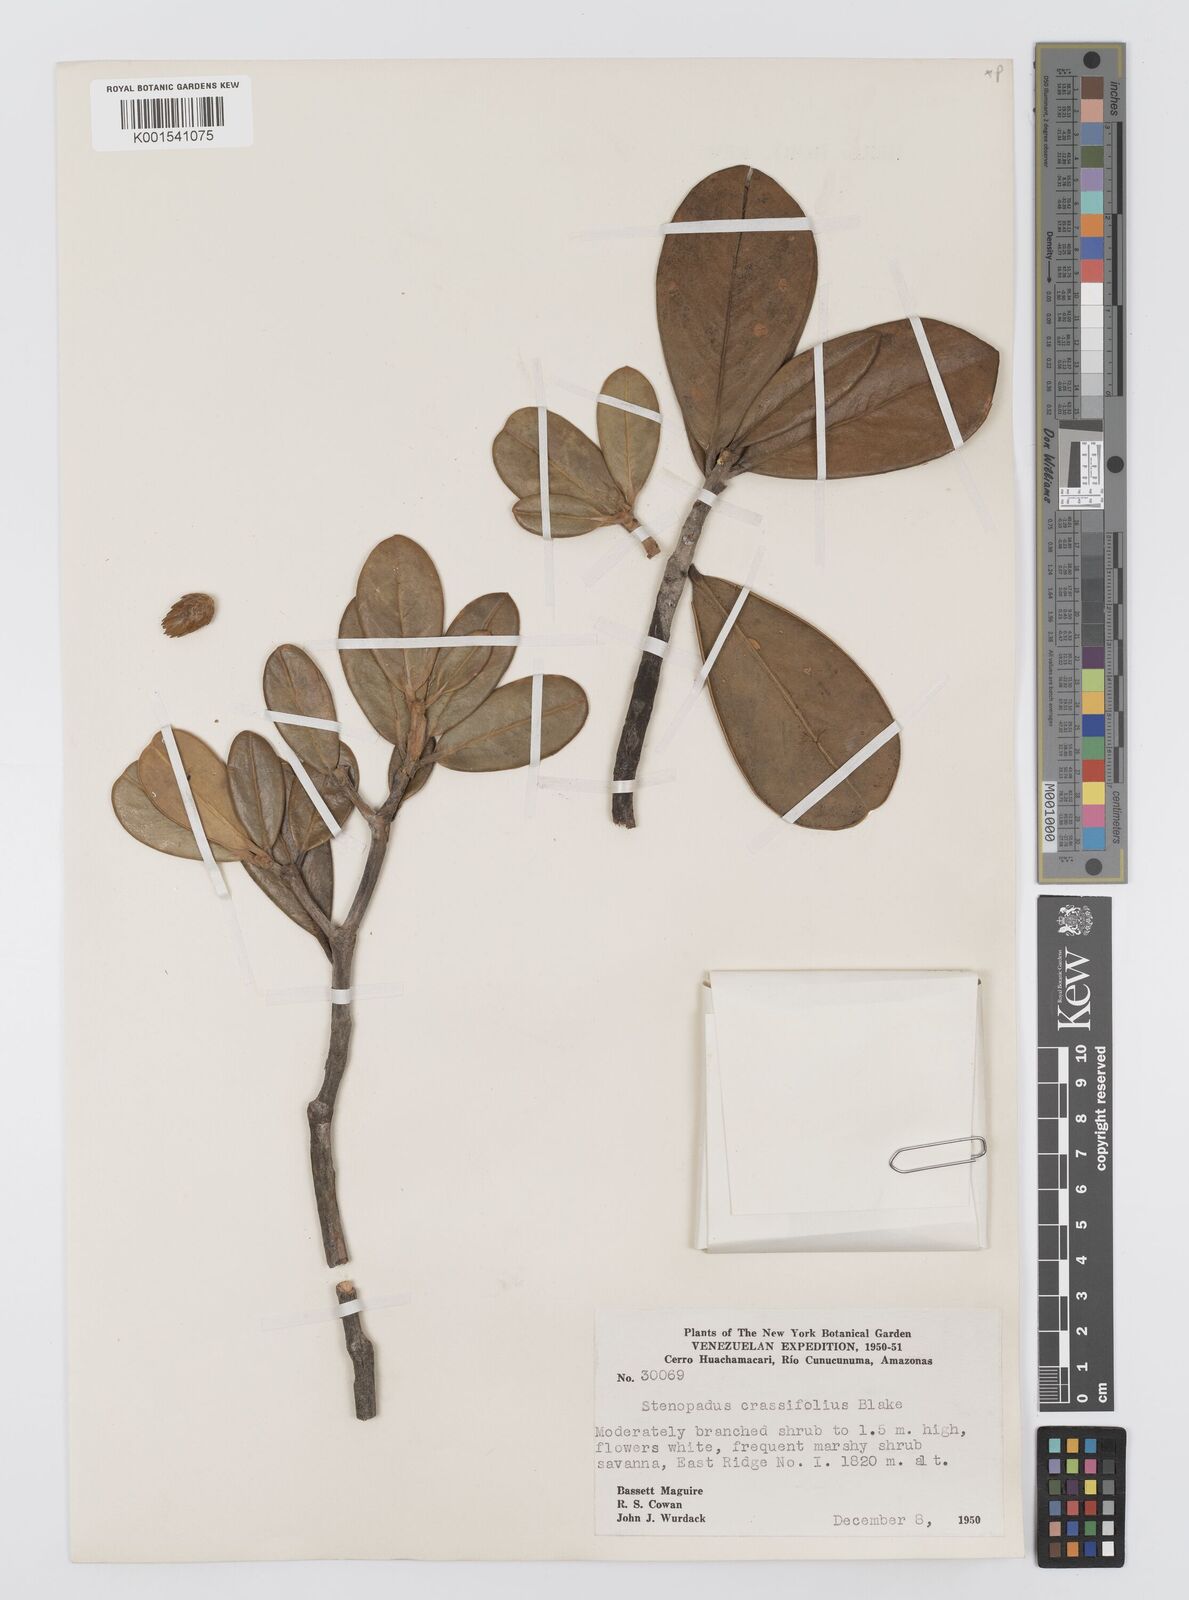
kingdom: Plantae
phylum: Tracheophyta
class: Magnoliopsida
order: Asterales
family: Asteraceae
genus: Stomatochaeta
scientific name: Stomatochaeta crassifolia
